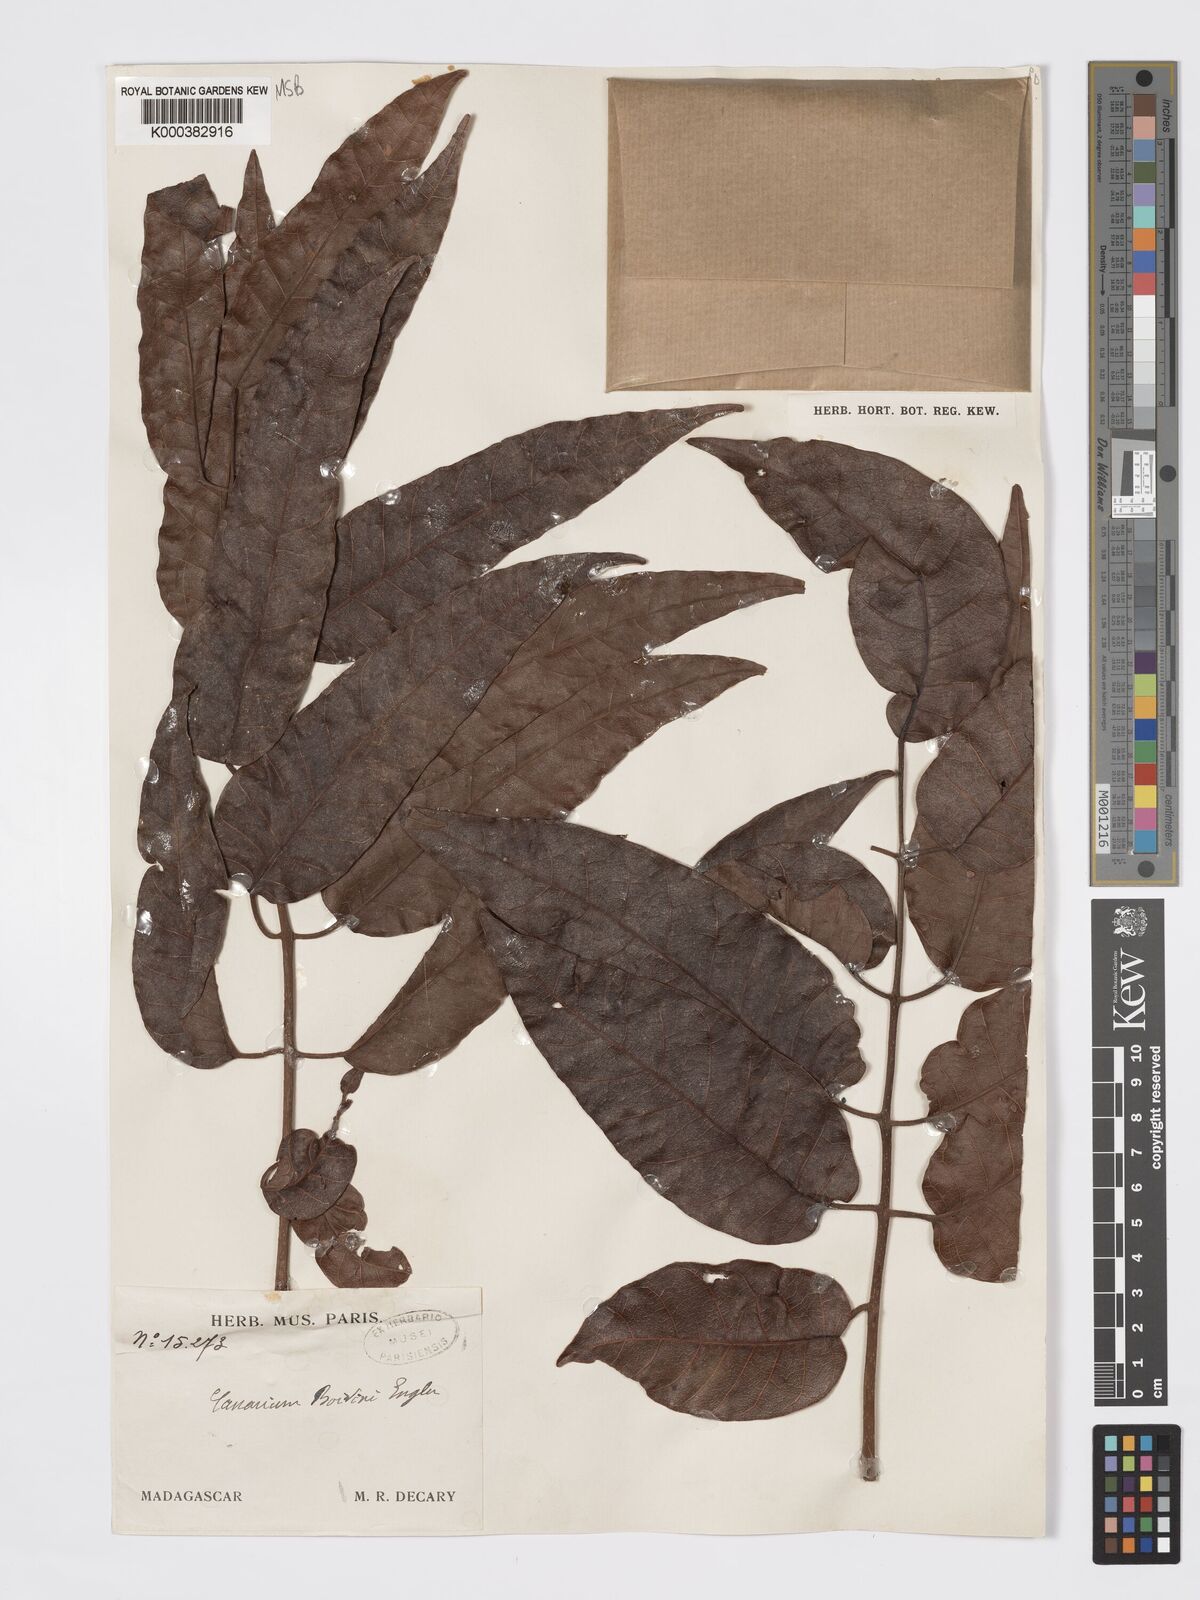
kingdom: Plantae
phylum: Tracheophyta
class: Magnoliopsida
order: Sapindales
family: Burseraceae
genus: Canarium
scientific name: Canarium madagascariense
